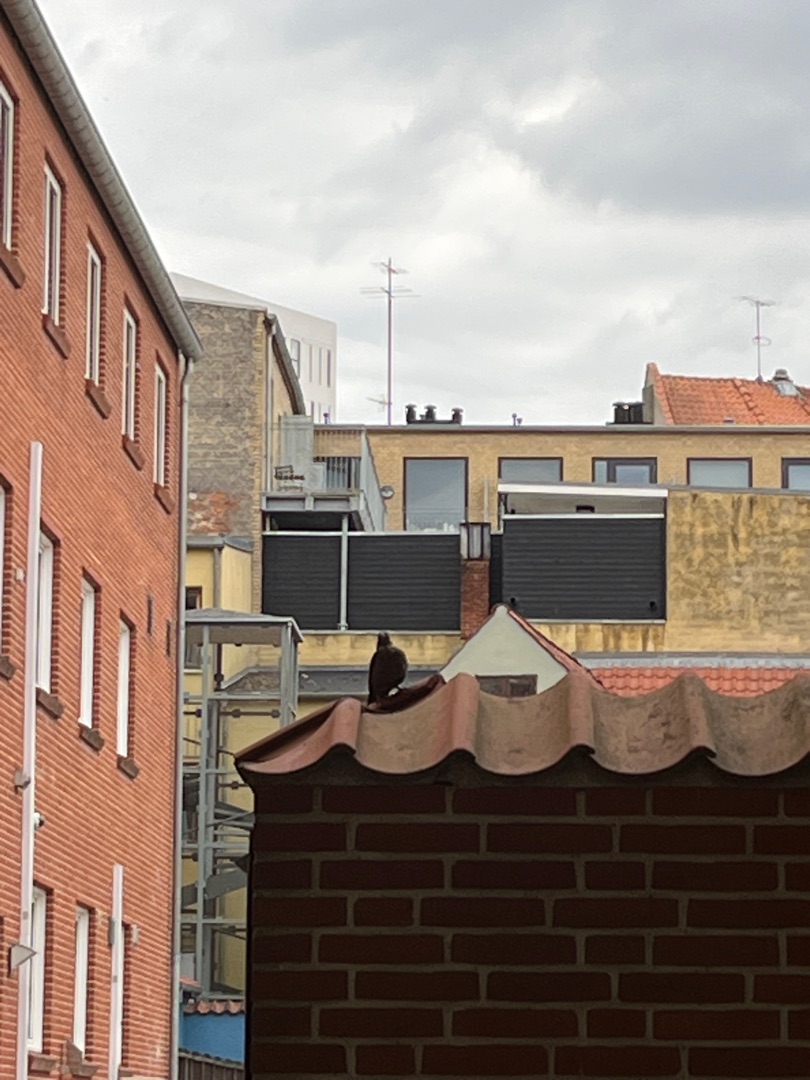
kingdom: Animalia
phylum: Chordata
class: Aves
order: Passeriformes
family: Turdidae
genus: Turdus
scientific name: Turdus merula
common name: Solsort
